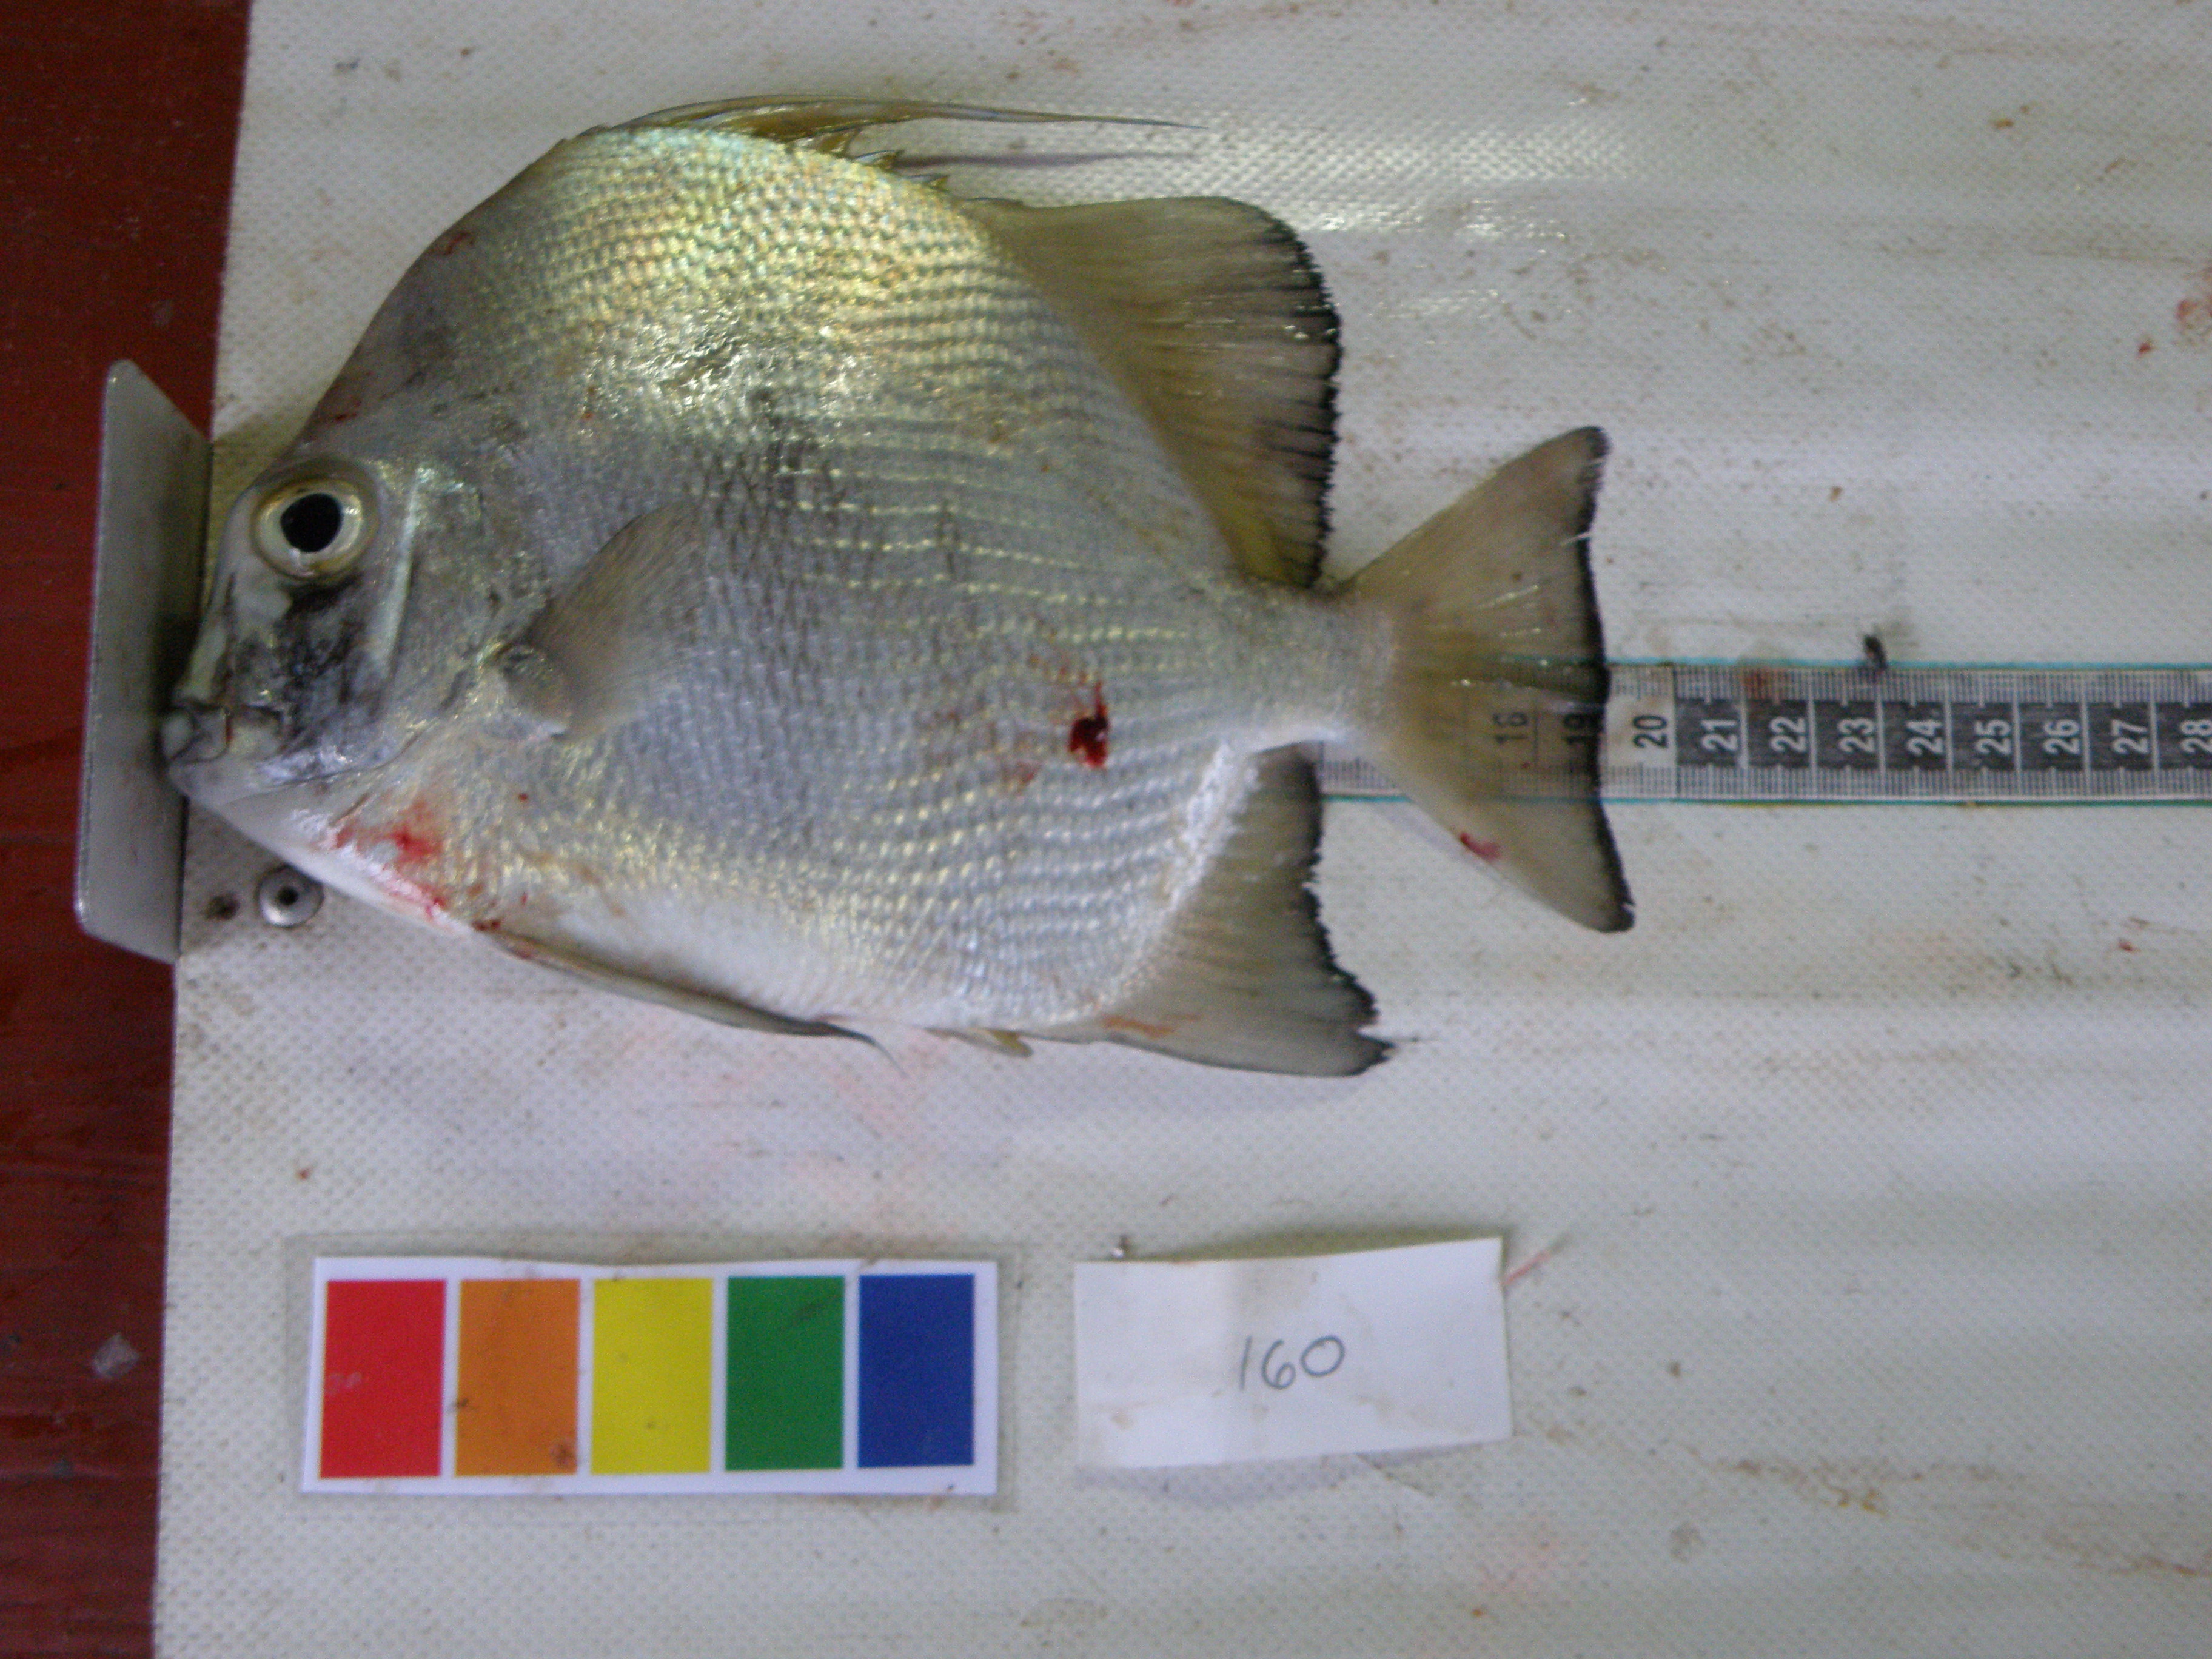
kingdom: Animalia
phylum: Chordata
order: Perciformes
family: Ephippidae
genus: Tripterodon
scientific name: Tripterodon orbis
